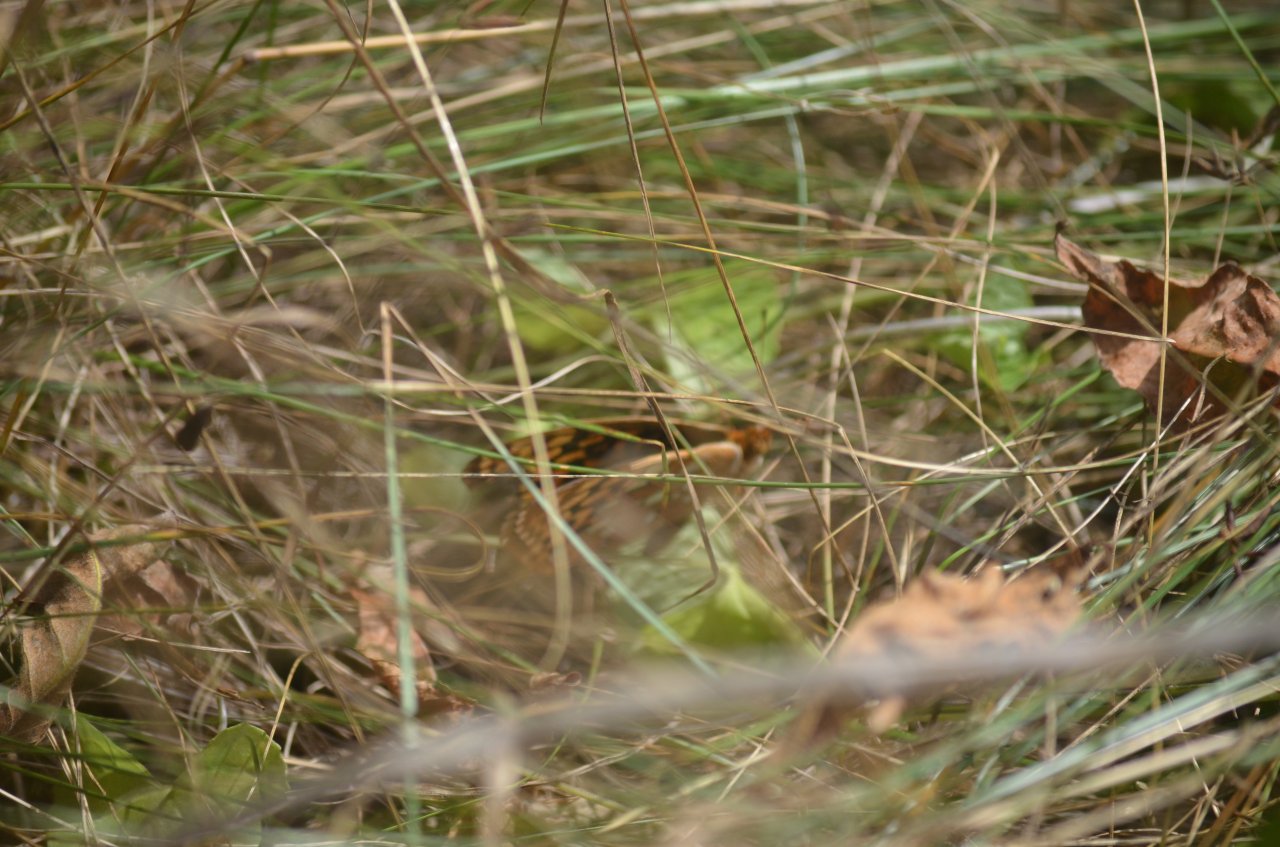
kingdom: Animalia
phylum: Arthropoda
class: Insecta
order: Lepidoptera
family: Nymphalidae
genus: Speyeria
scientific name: Speyeria cybele
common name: Great Spangled Fritillary
